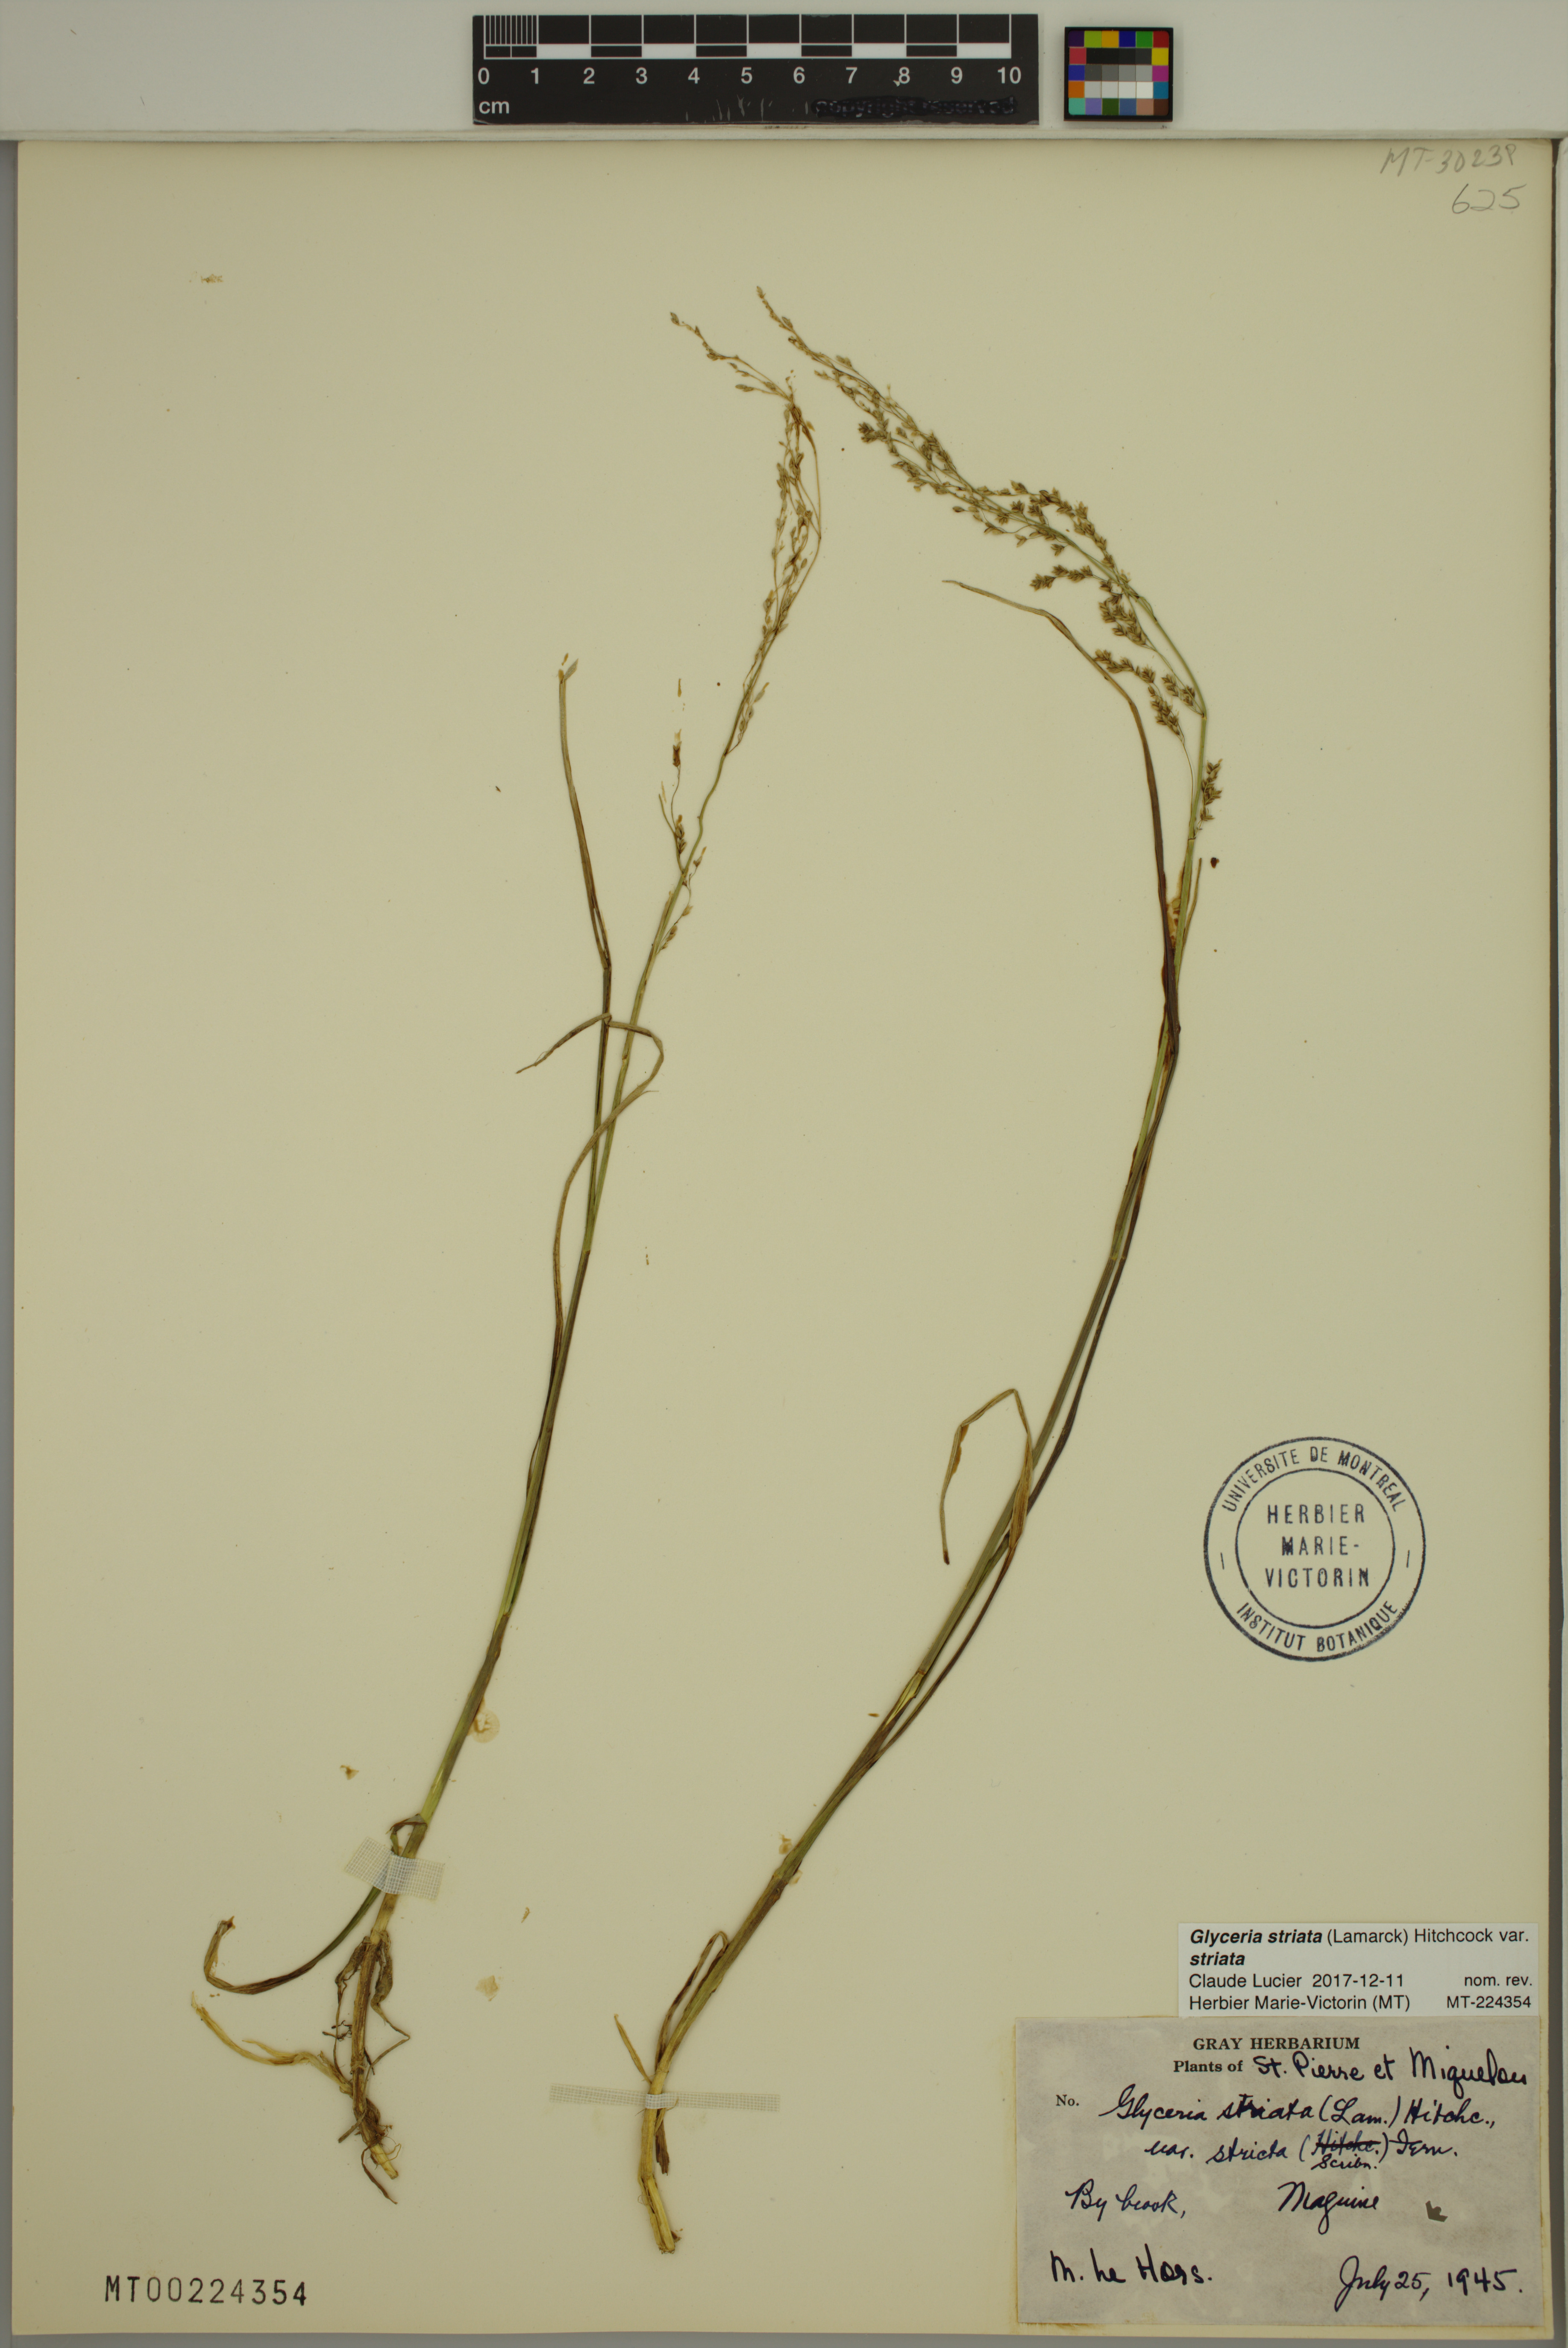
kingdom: Plantae
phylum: Tracheophyta
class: Liliopsida
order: Poales
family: Poaceae
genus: Glyceria
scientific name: Glyceria striata
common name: Fowl manna grass
